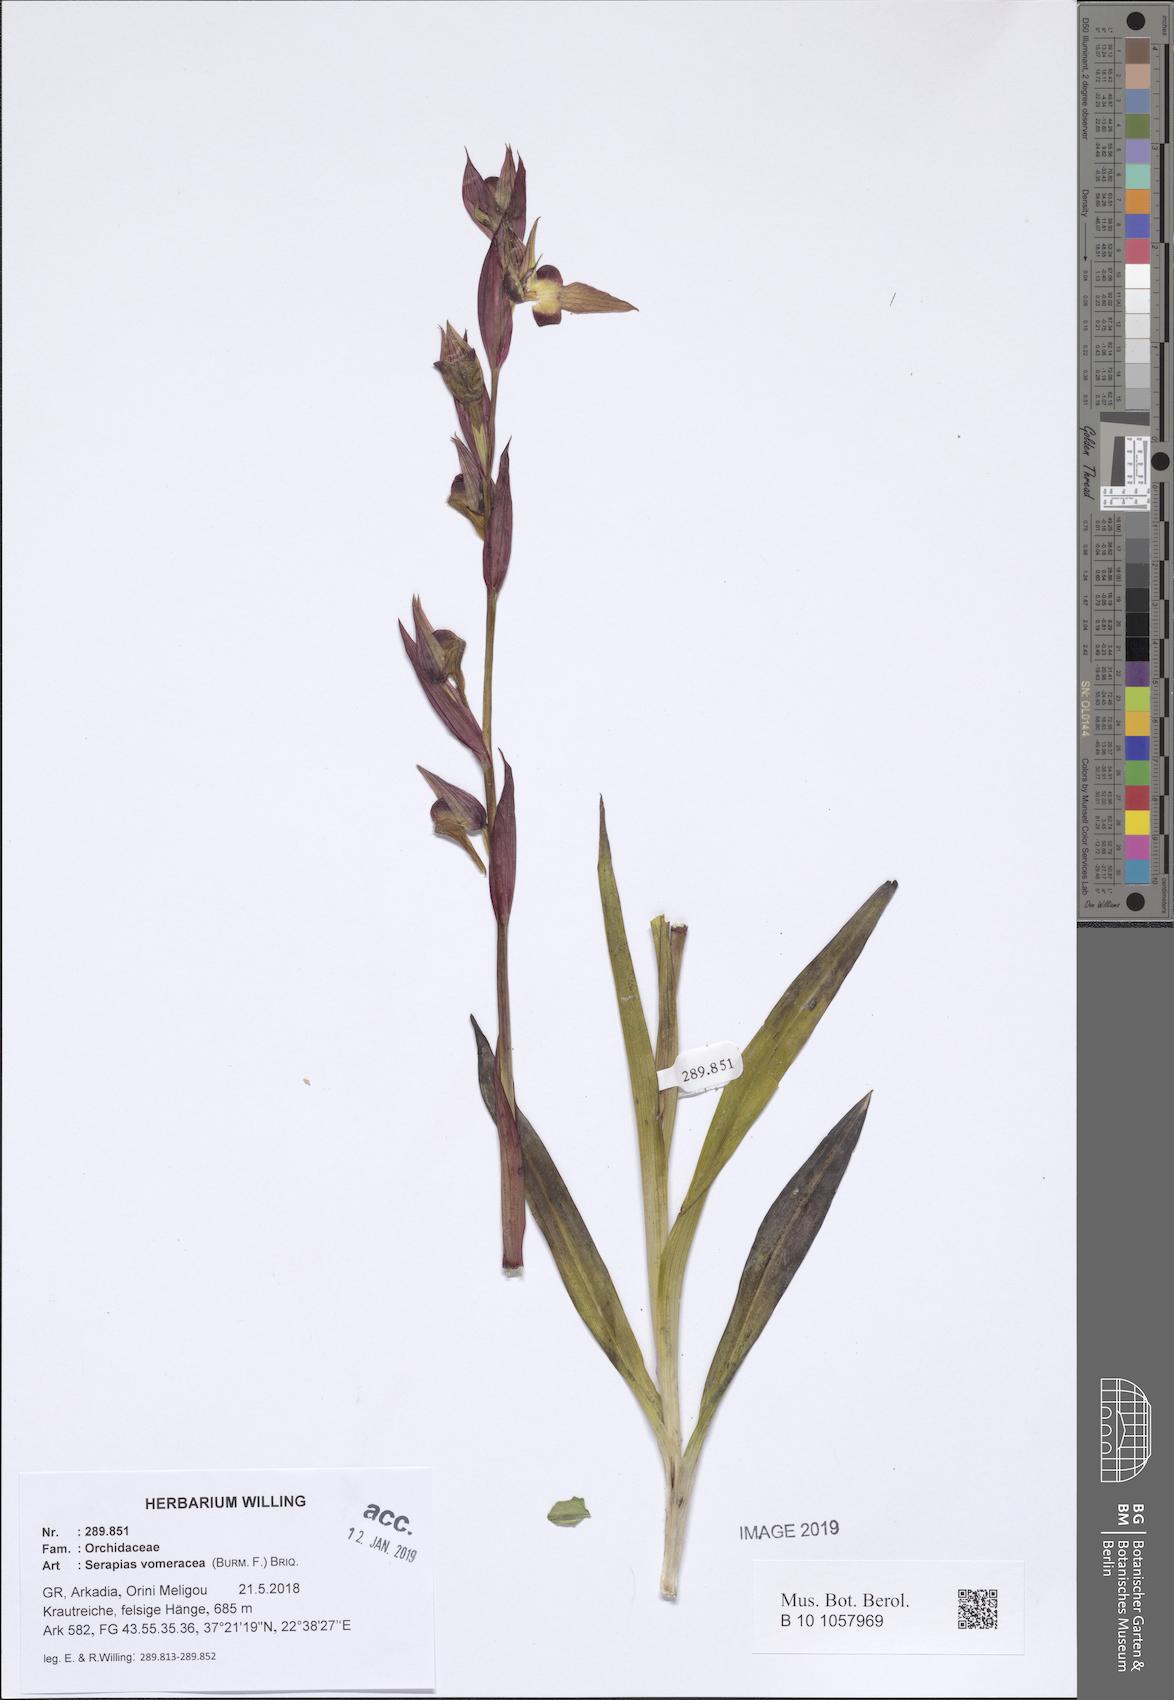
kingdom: Plantae
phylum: Tracheophyta
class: Liliopsida
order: Asparagales
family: Orchidaceae
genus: Serapias
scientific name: Serapias vomeracea
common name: Long-lipped tongue-orchid
